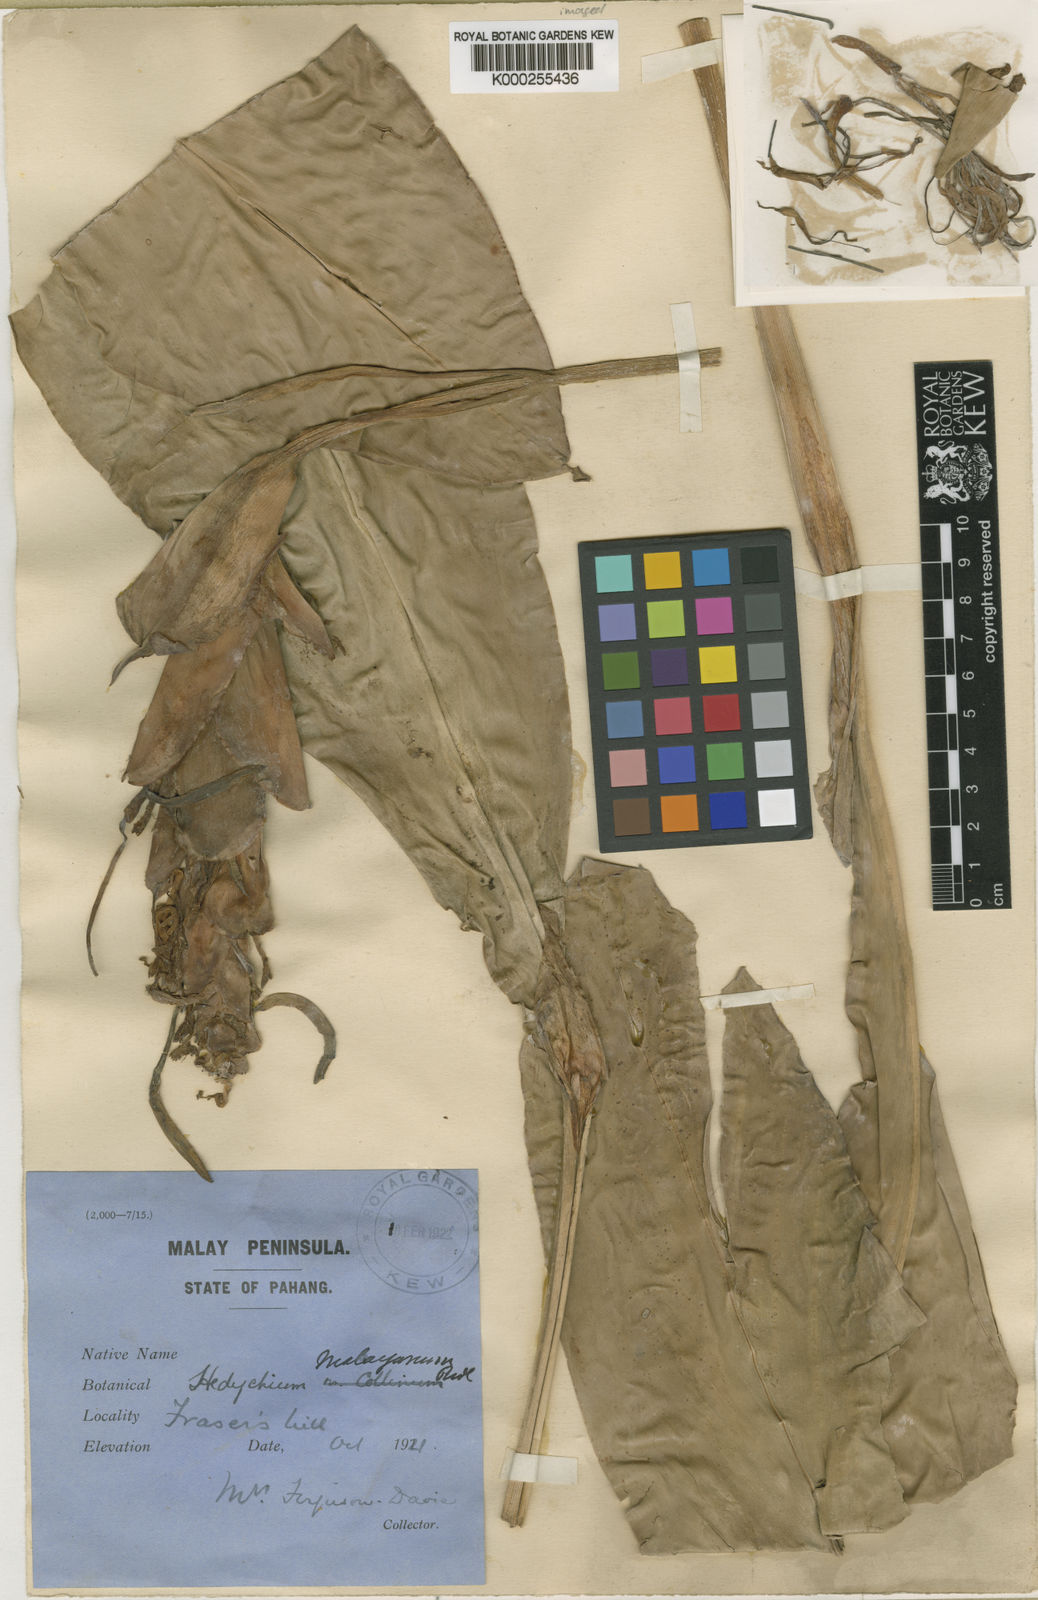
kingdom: Plantae
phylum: Tracheophyta
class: Liliopsida
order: Zingiberales
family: Zingiberaceae
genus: Hedychium
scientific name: Hedychium malayanum
